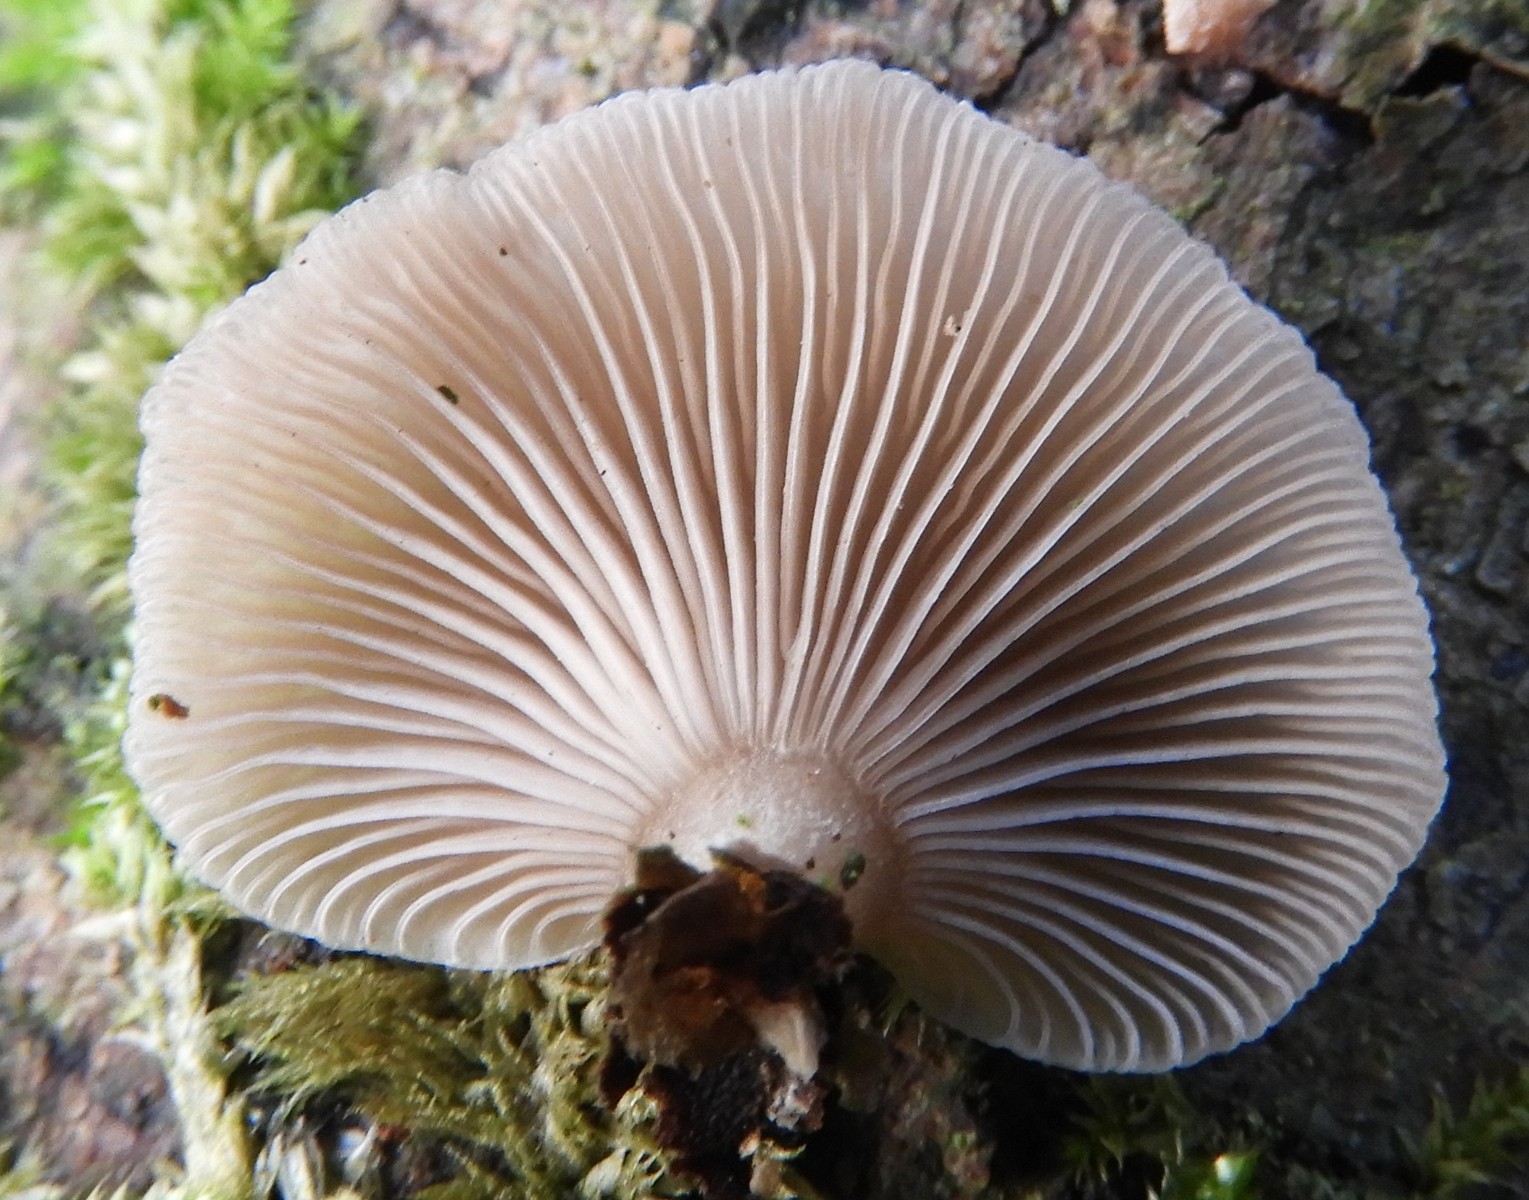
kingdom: Fungi
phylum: Basidiomycota
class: Agaricomycetes
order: Agaricales
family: Mycenaceae
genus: Panellus
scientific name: Panellus mitis
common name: mild epaulethat
